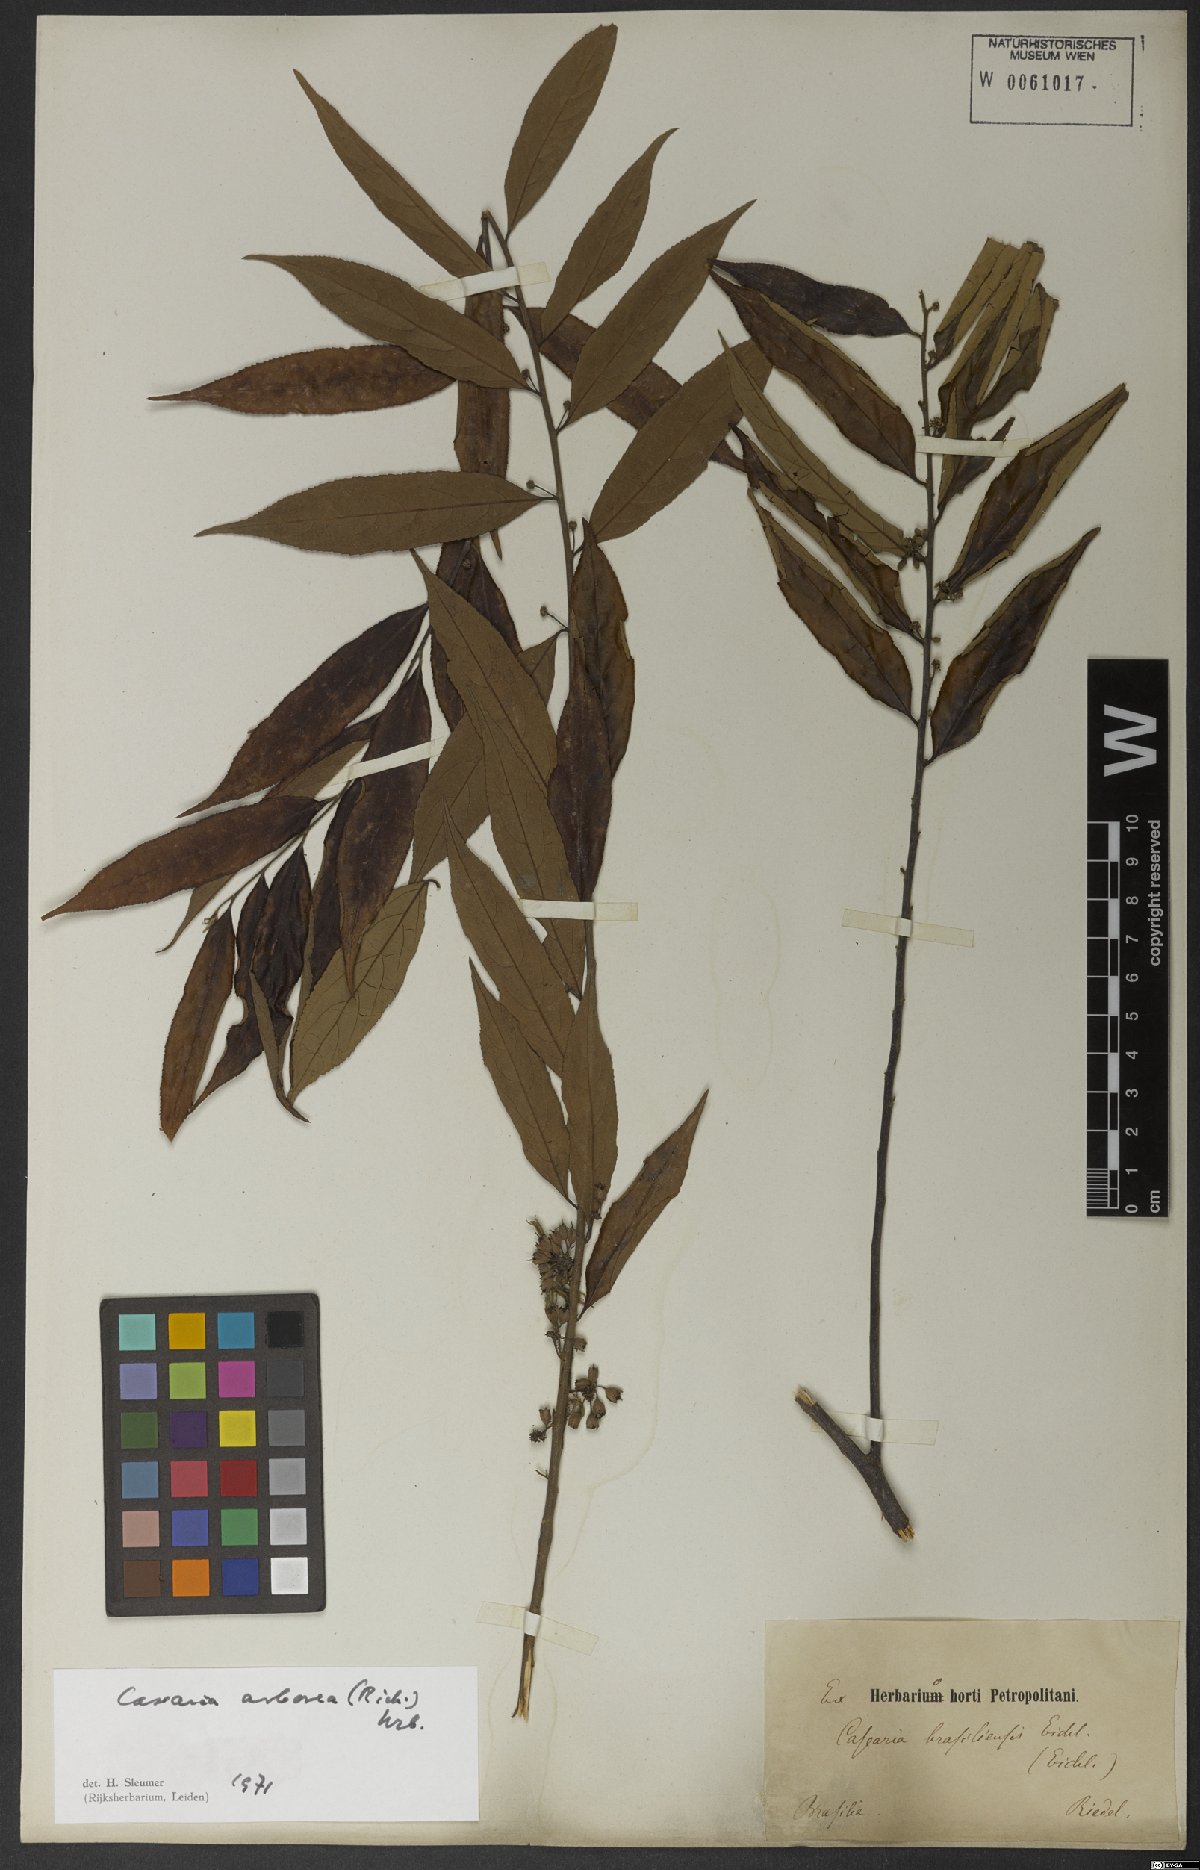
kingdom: Plantae
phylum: Tracheophyta
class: Magnoliopsida
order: Malpighiales
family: Salicaceae
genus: Casearia
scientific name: Casearia arborea
